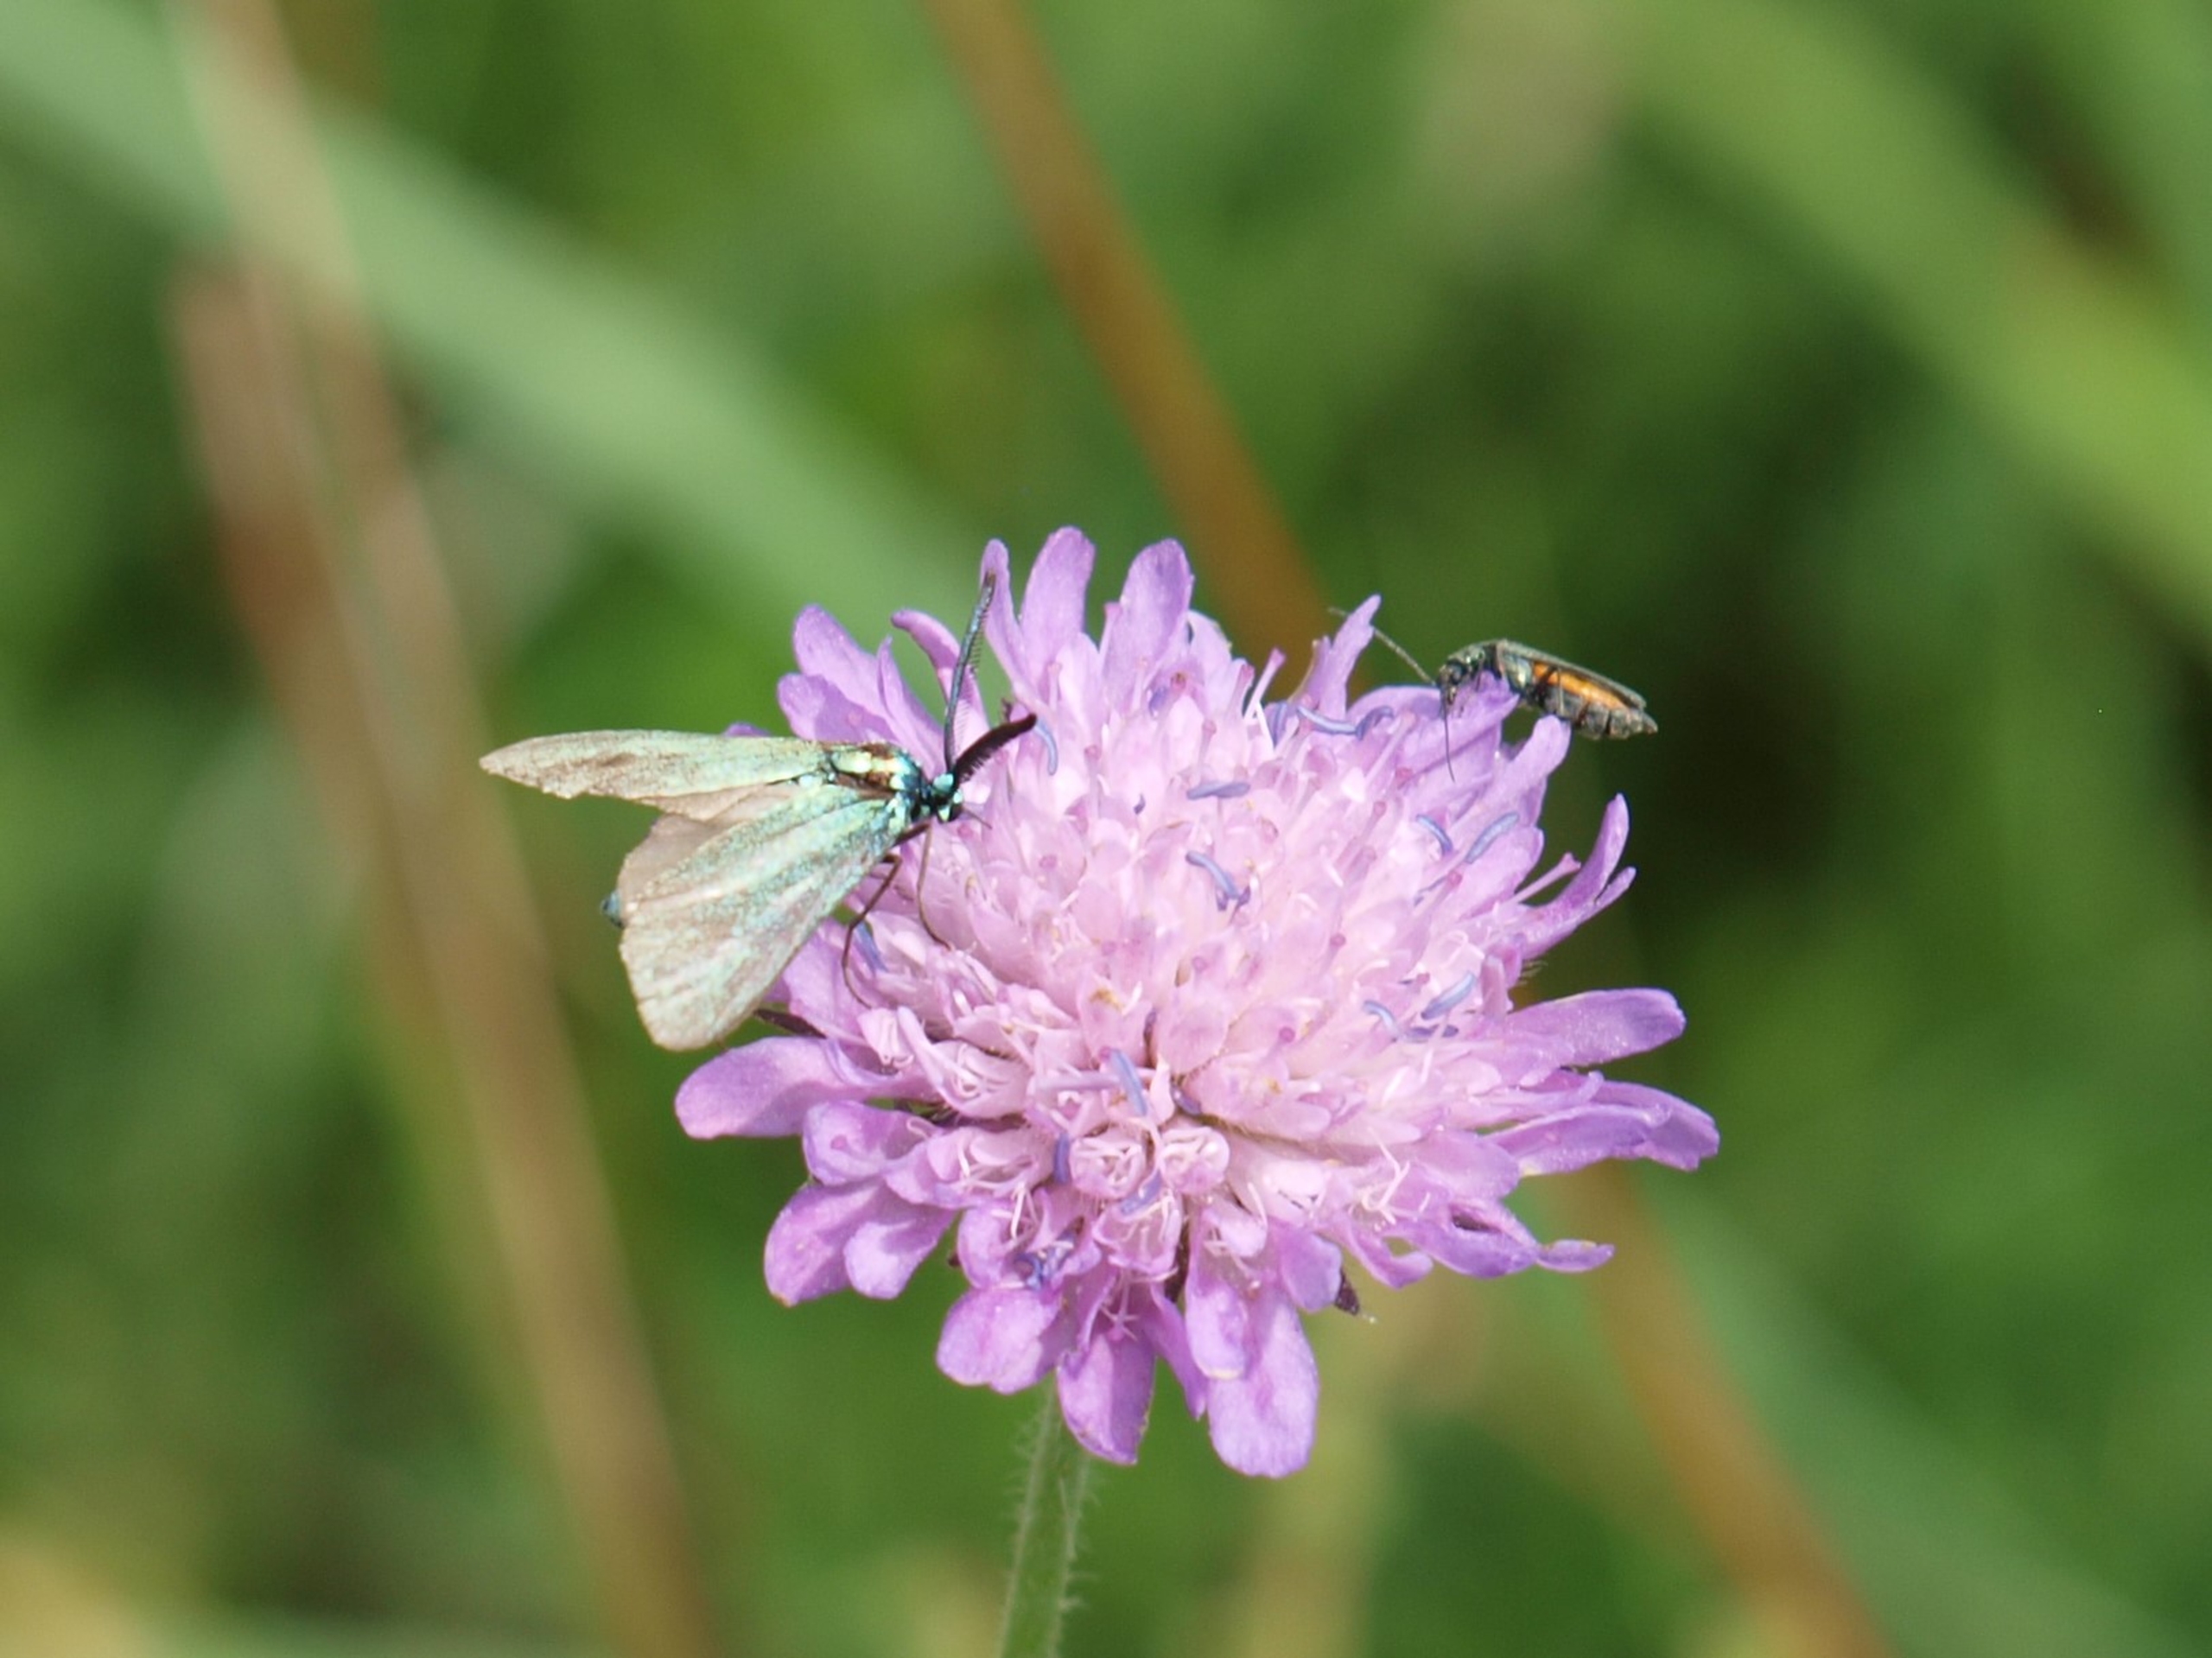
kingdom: Animalia
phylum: Arthropoda
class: Insecta
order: Lepidoptera
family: Zygaenidae
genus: Adscita
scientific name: Adscita statices
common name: Metalvinge
